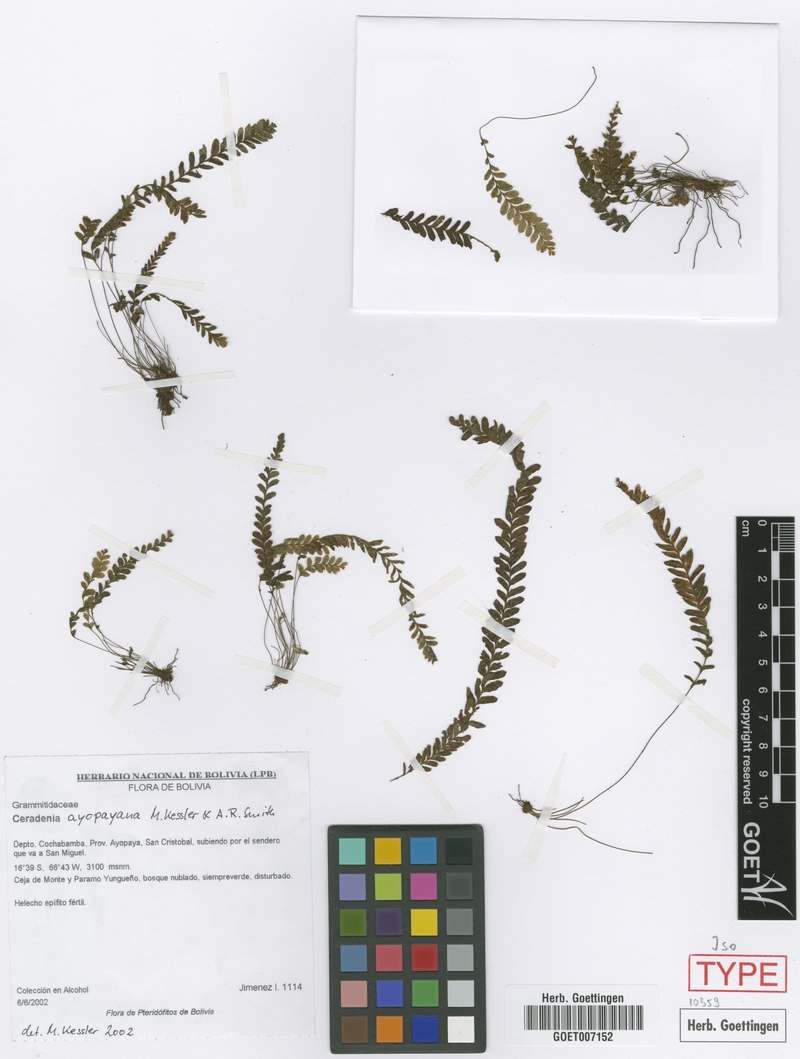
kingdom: Plantae
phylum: Tracheophyta
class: Polypodiopsida
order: Polypodiales
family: Polypodiaceae
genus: Ceradenia
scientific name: Ceradenia ayopayana
